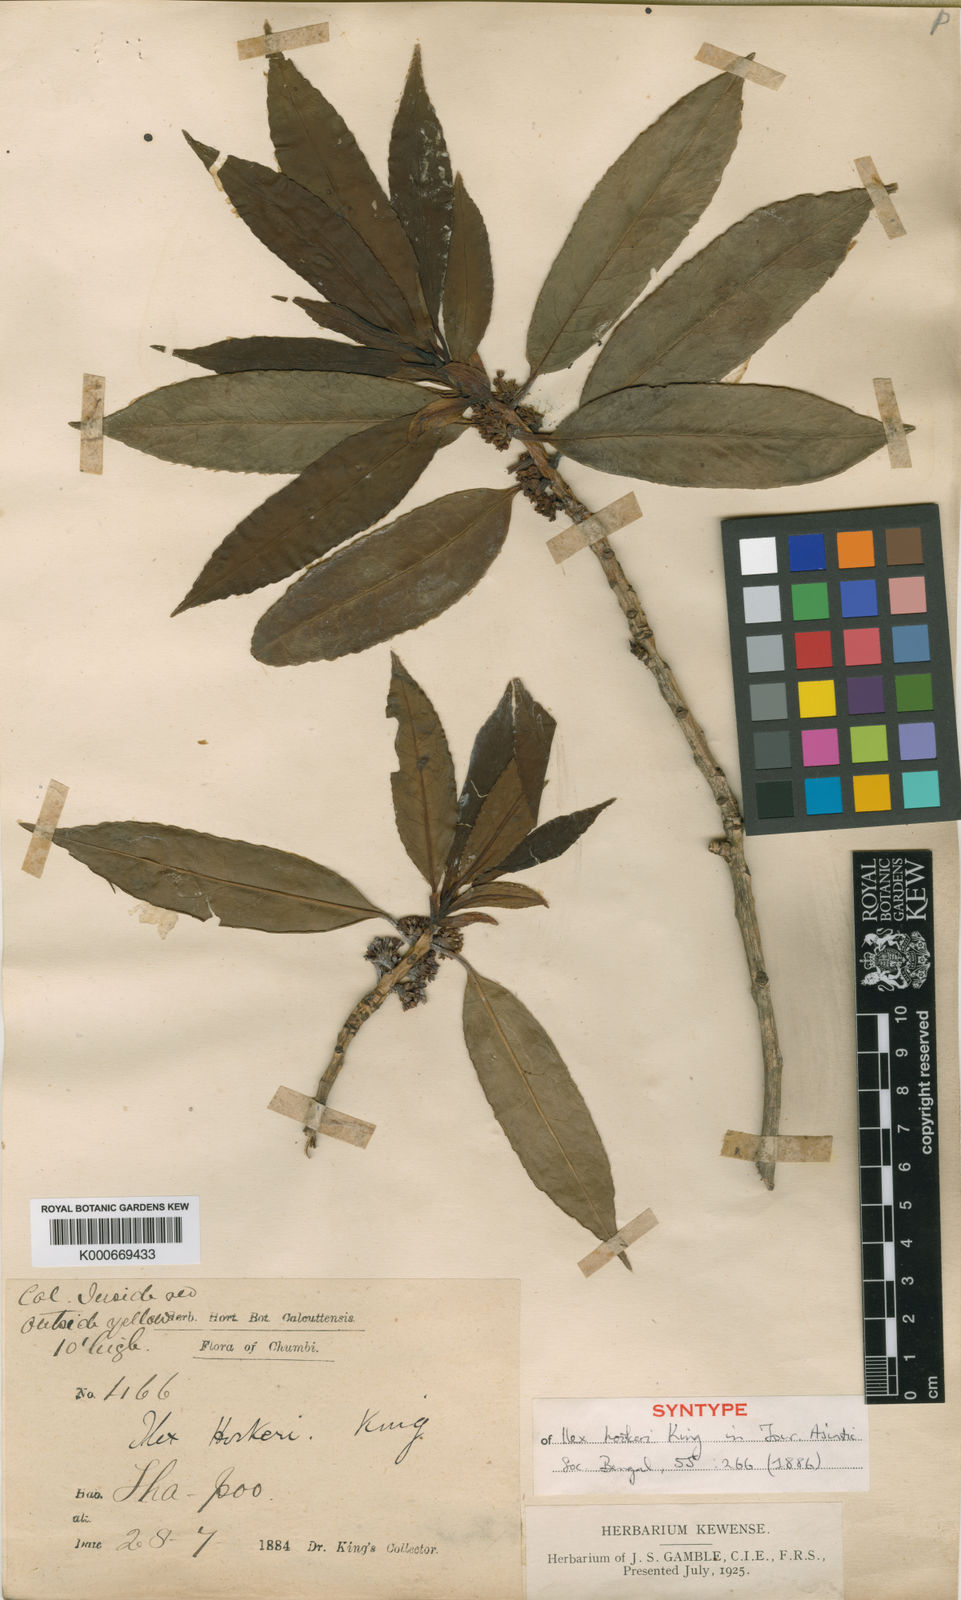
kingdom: Plantae
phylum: Tracheophyta
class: Magnoliopsida
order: Aquifoliales
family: Aquifoliaceae
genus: Ilex
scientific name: Ilex hookeri
